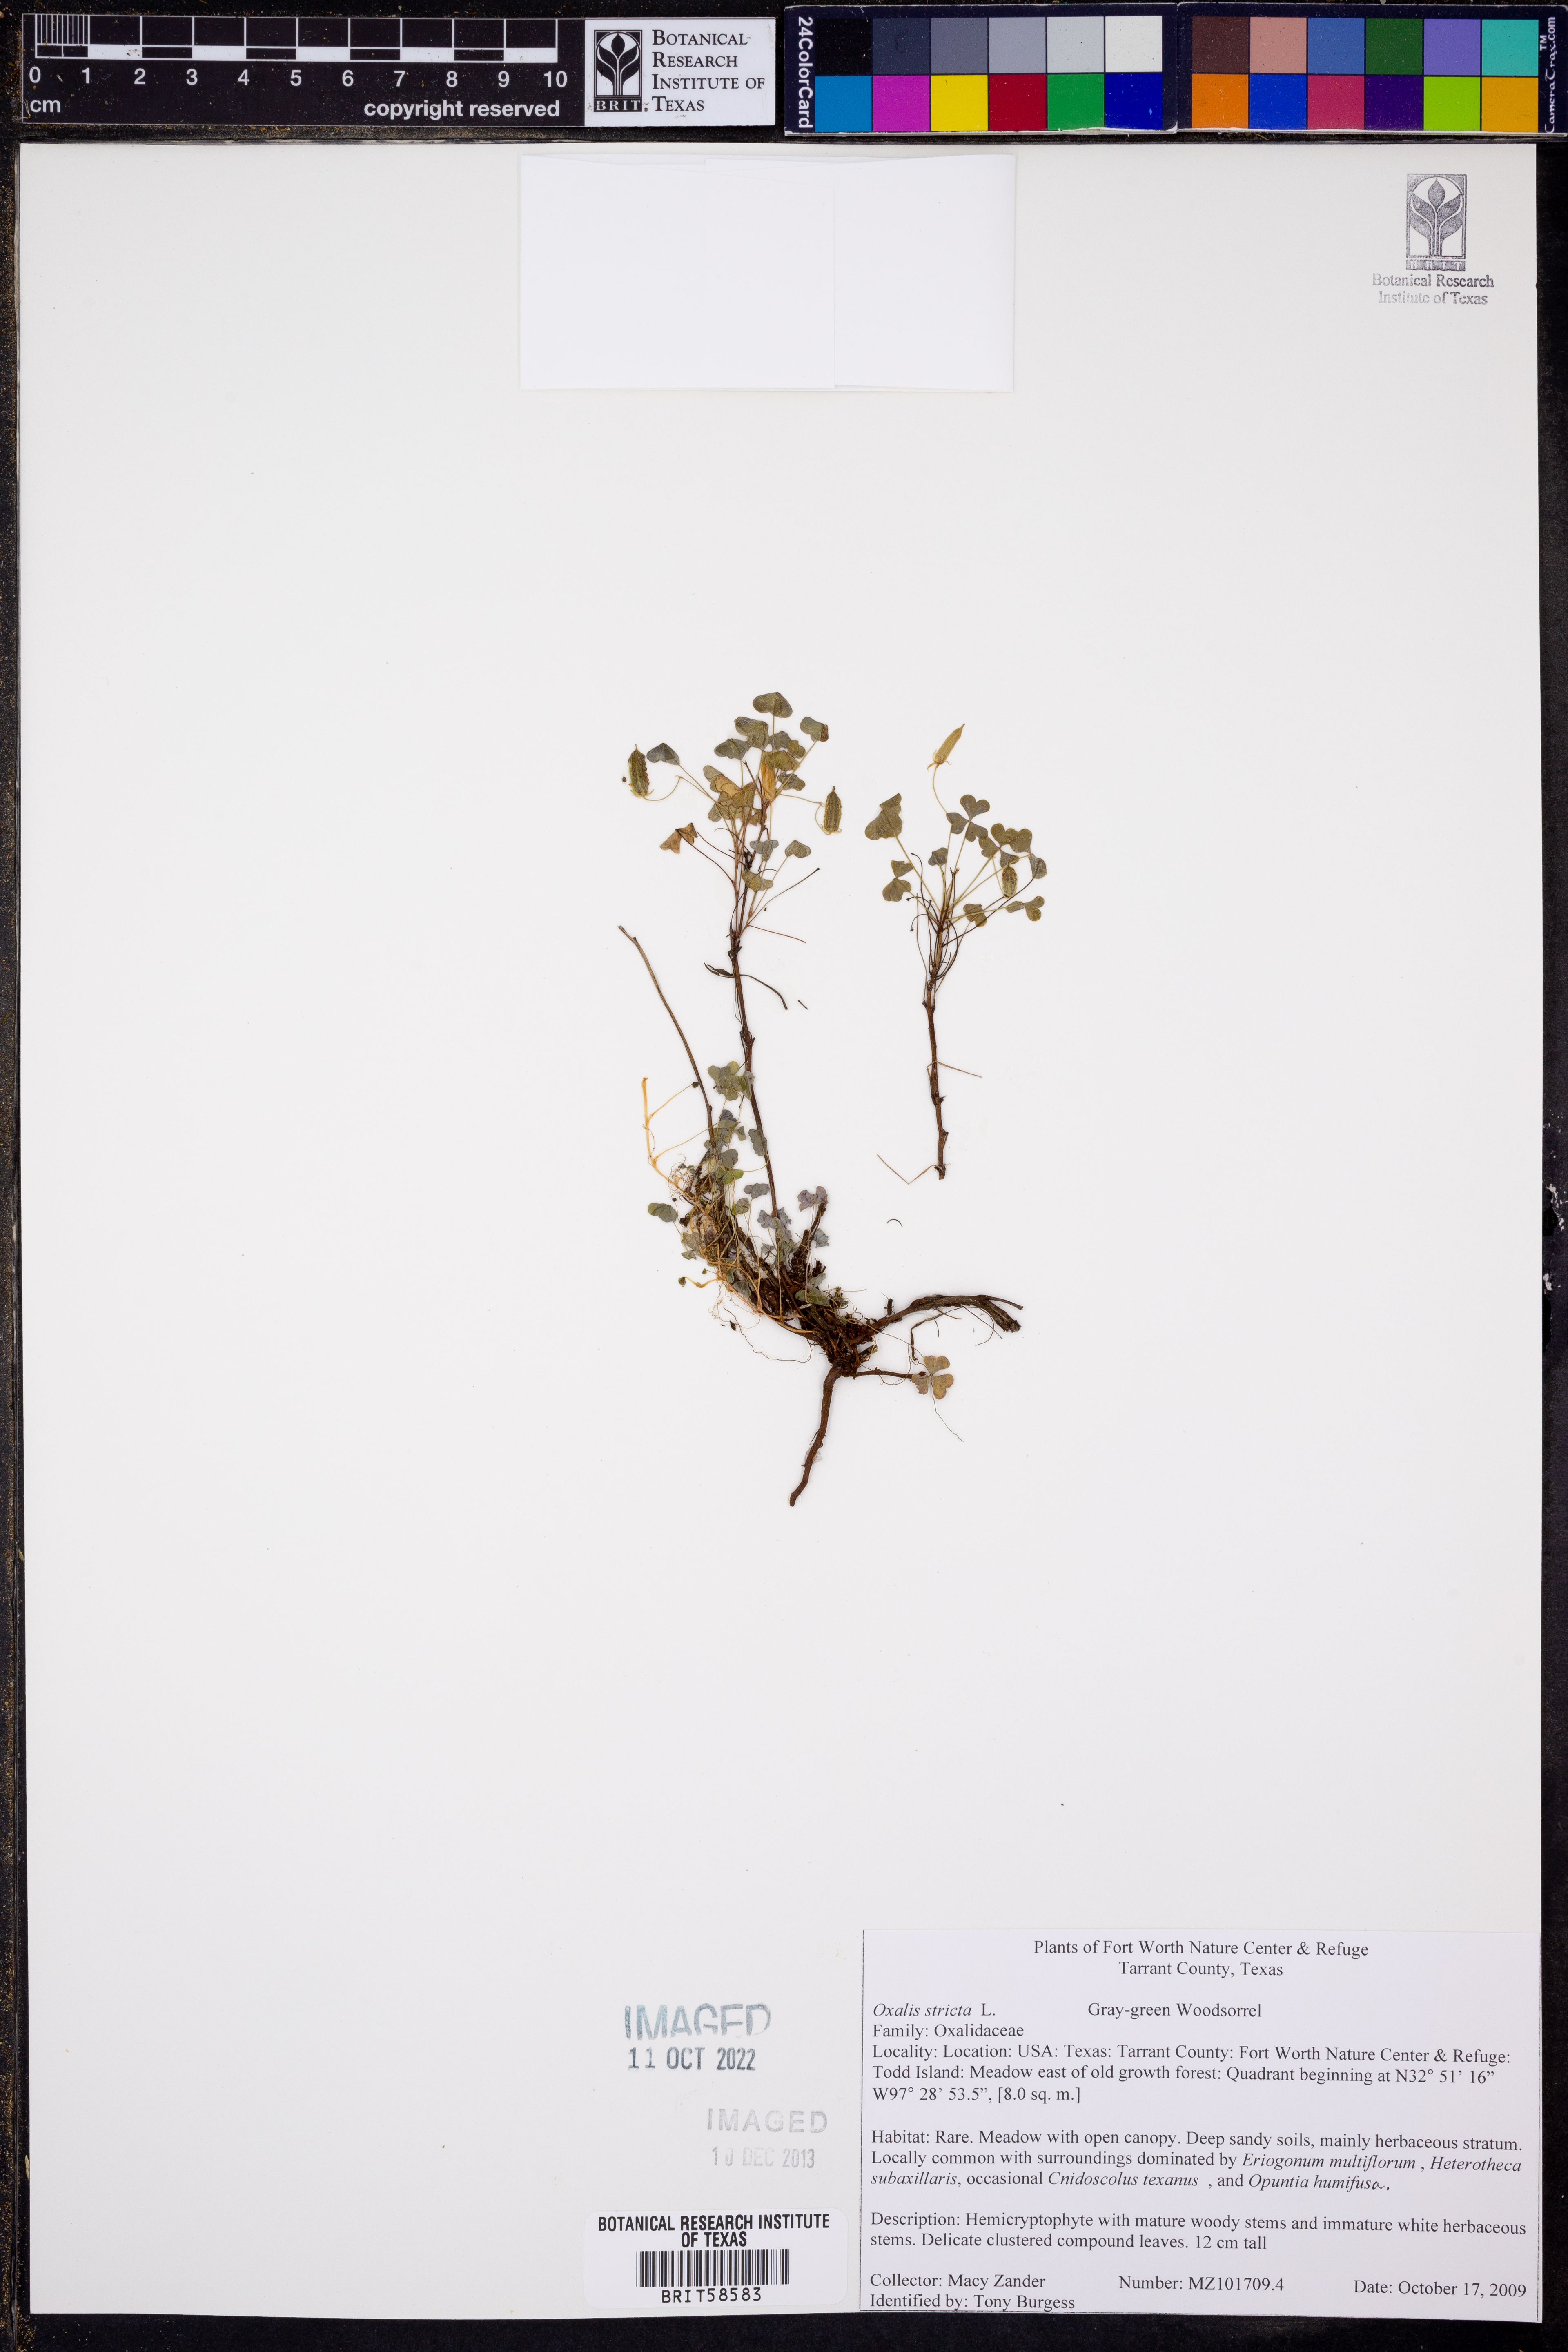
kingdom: Plantae
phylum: Tracheophyta
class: Magnoliopsida
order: Oxalidales
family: Oxalidaceae
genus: Oxalis
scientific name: Oxalis stricta
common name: Upright yellow-sorrel
